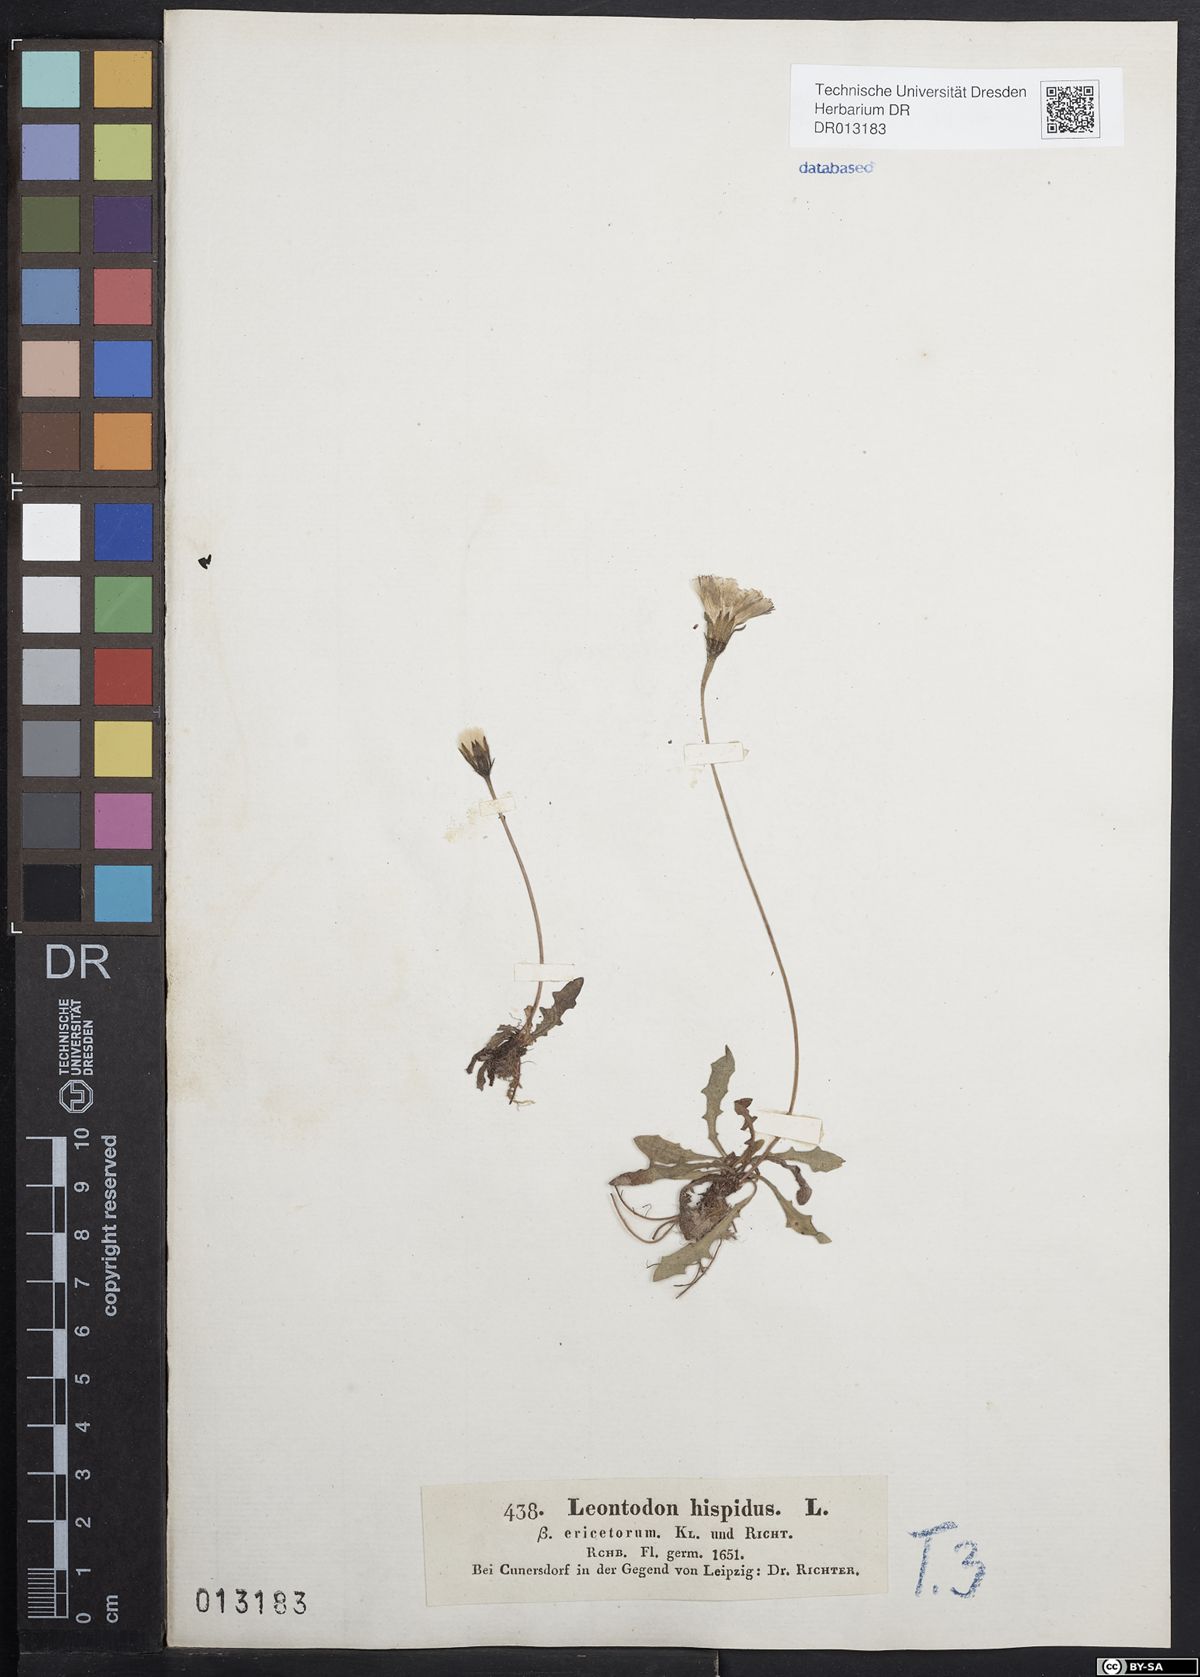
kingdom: Plantae
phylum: Tracheophyta
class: Magnoliopsida
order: Asterales
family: Asteraceae
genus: Leontodon
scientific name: Leontodon hispidus
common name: Rough hawkbit
